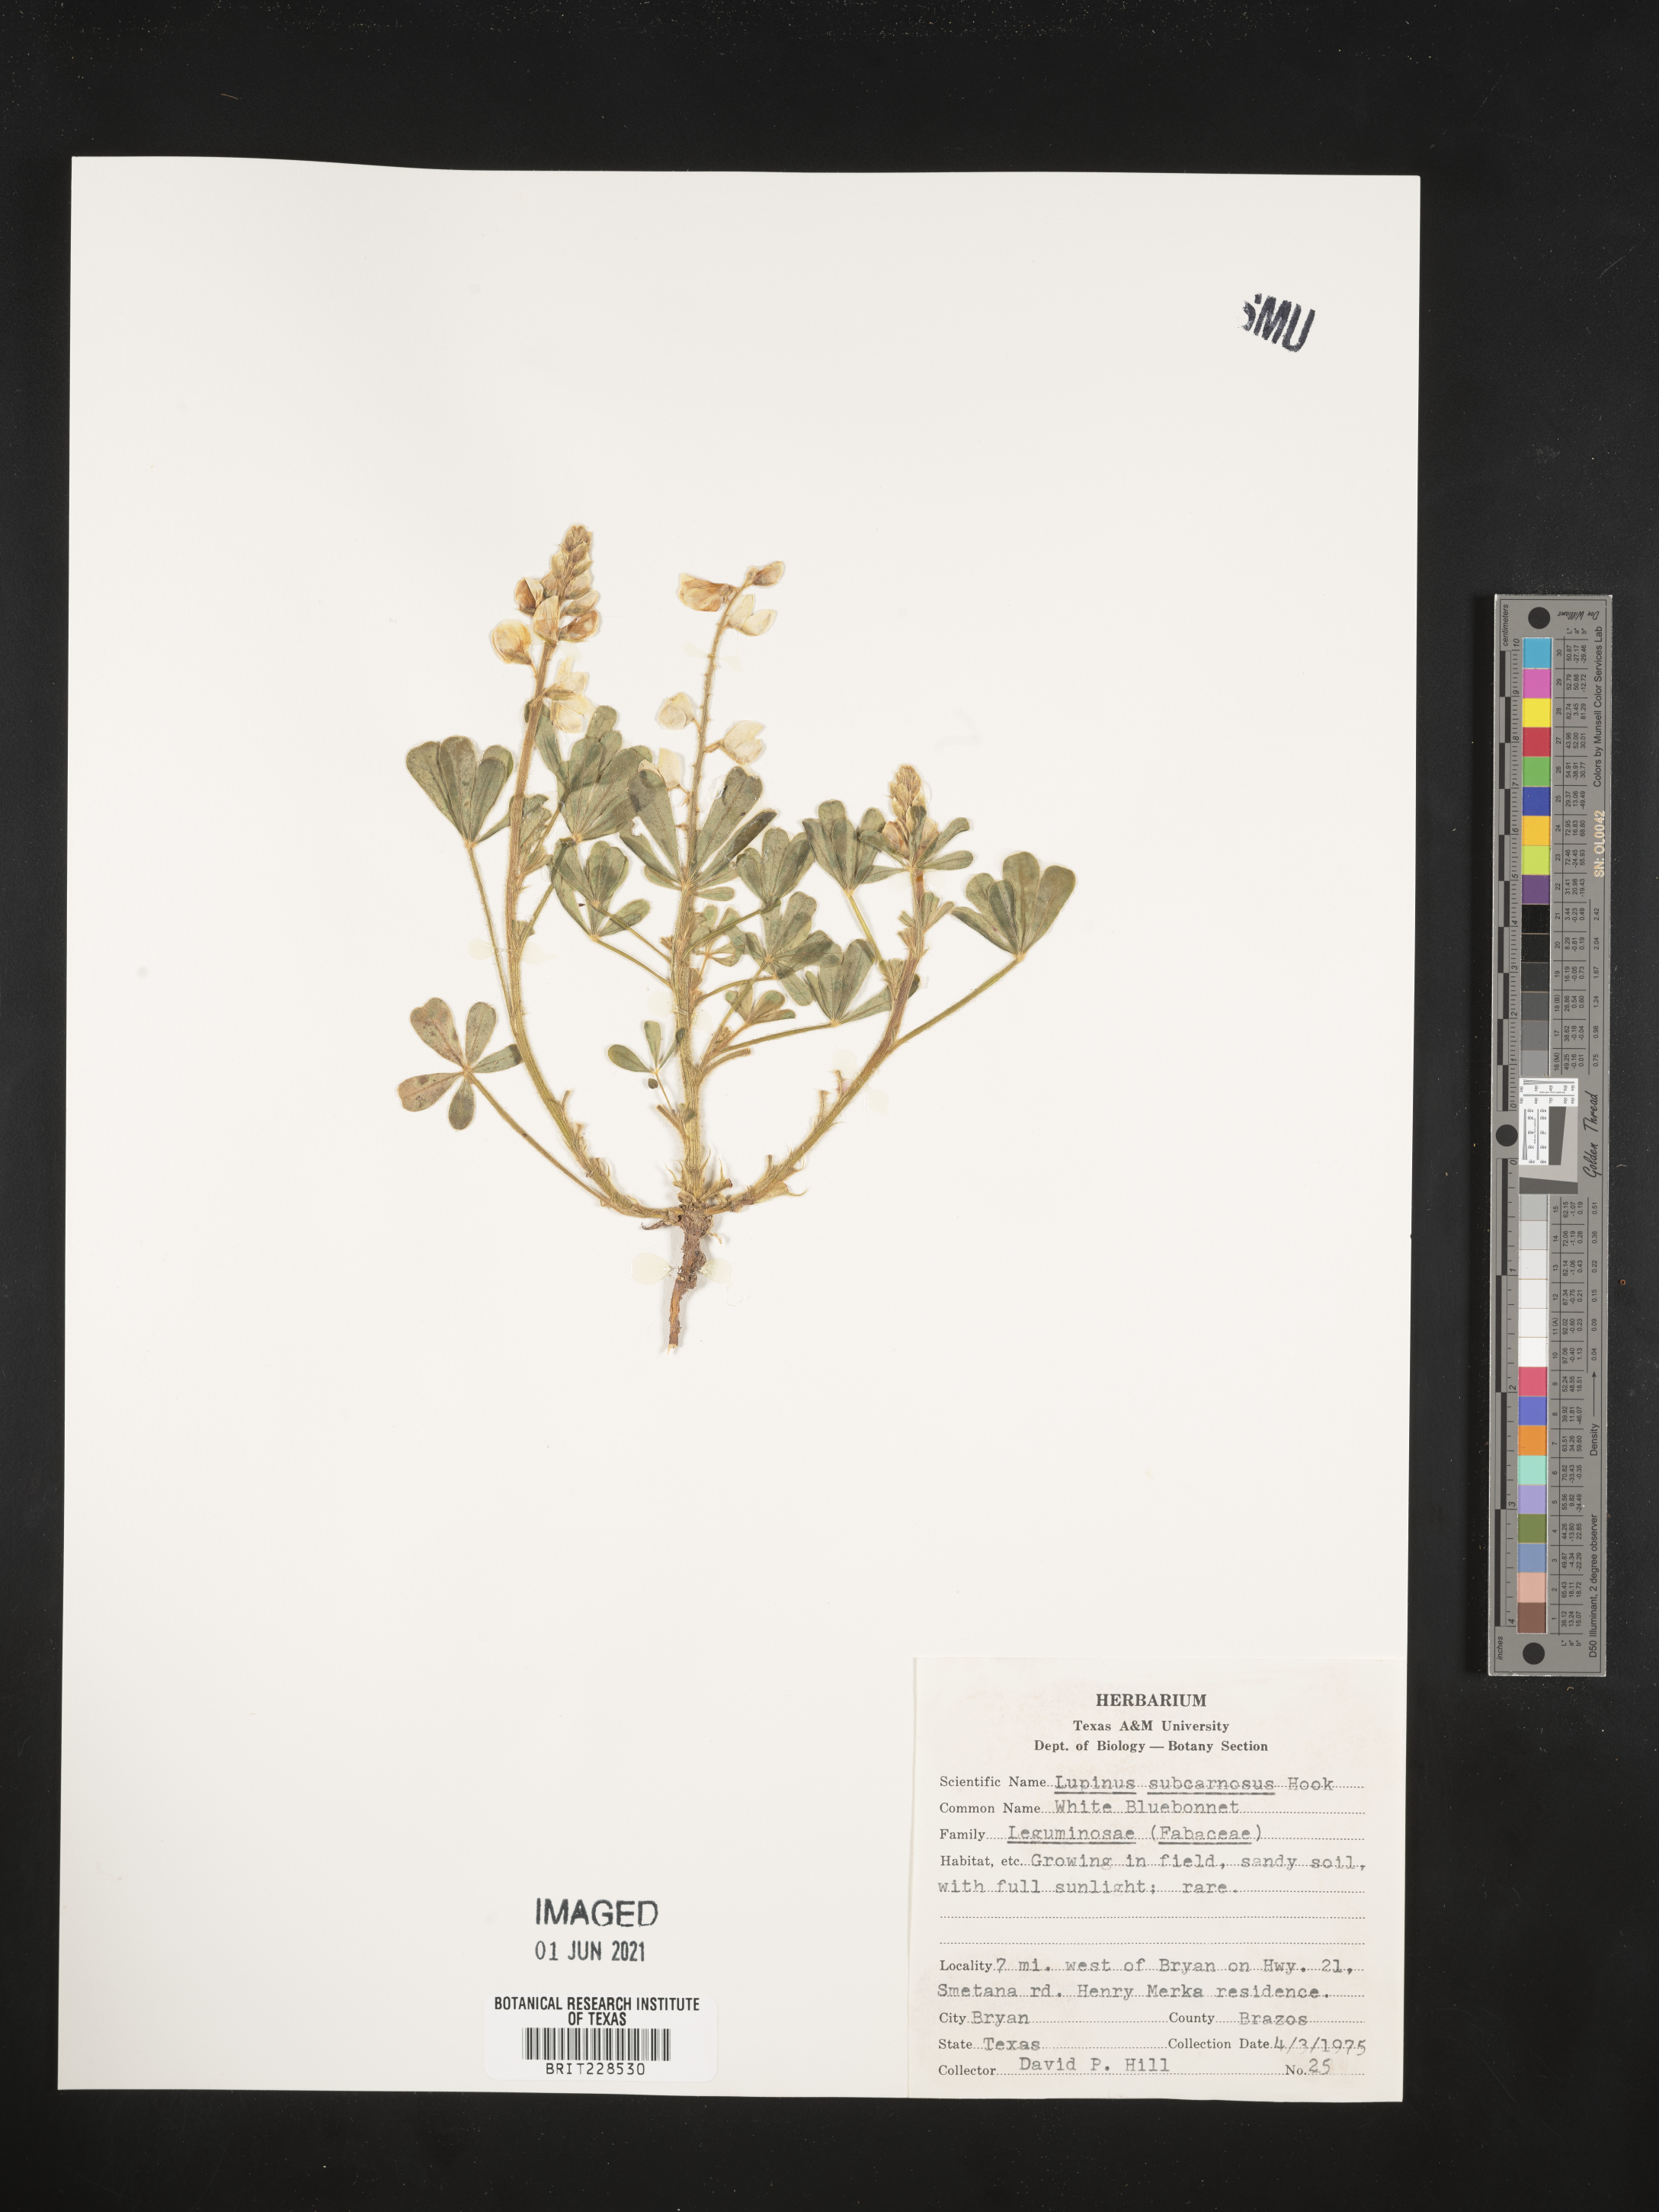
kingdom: Plantae
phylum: Tracheophyta
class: Magnoliopsida
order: Fabales
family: Fabaceae
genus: Lupinus
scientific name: Lupinus subcarnosus
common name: Texas bluebonnet
